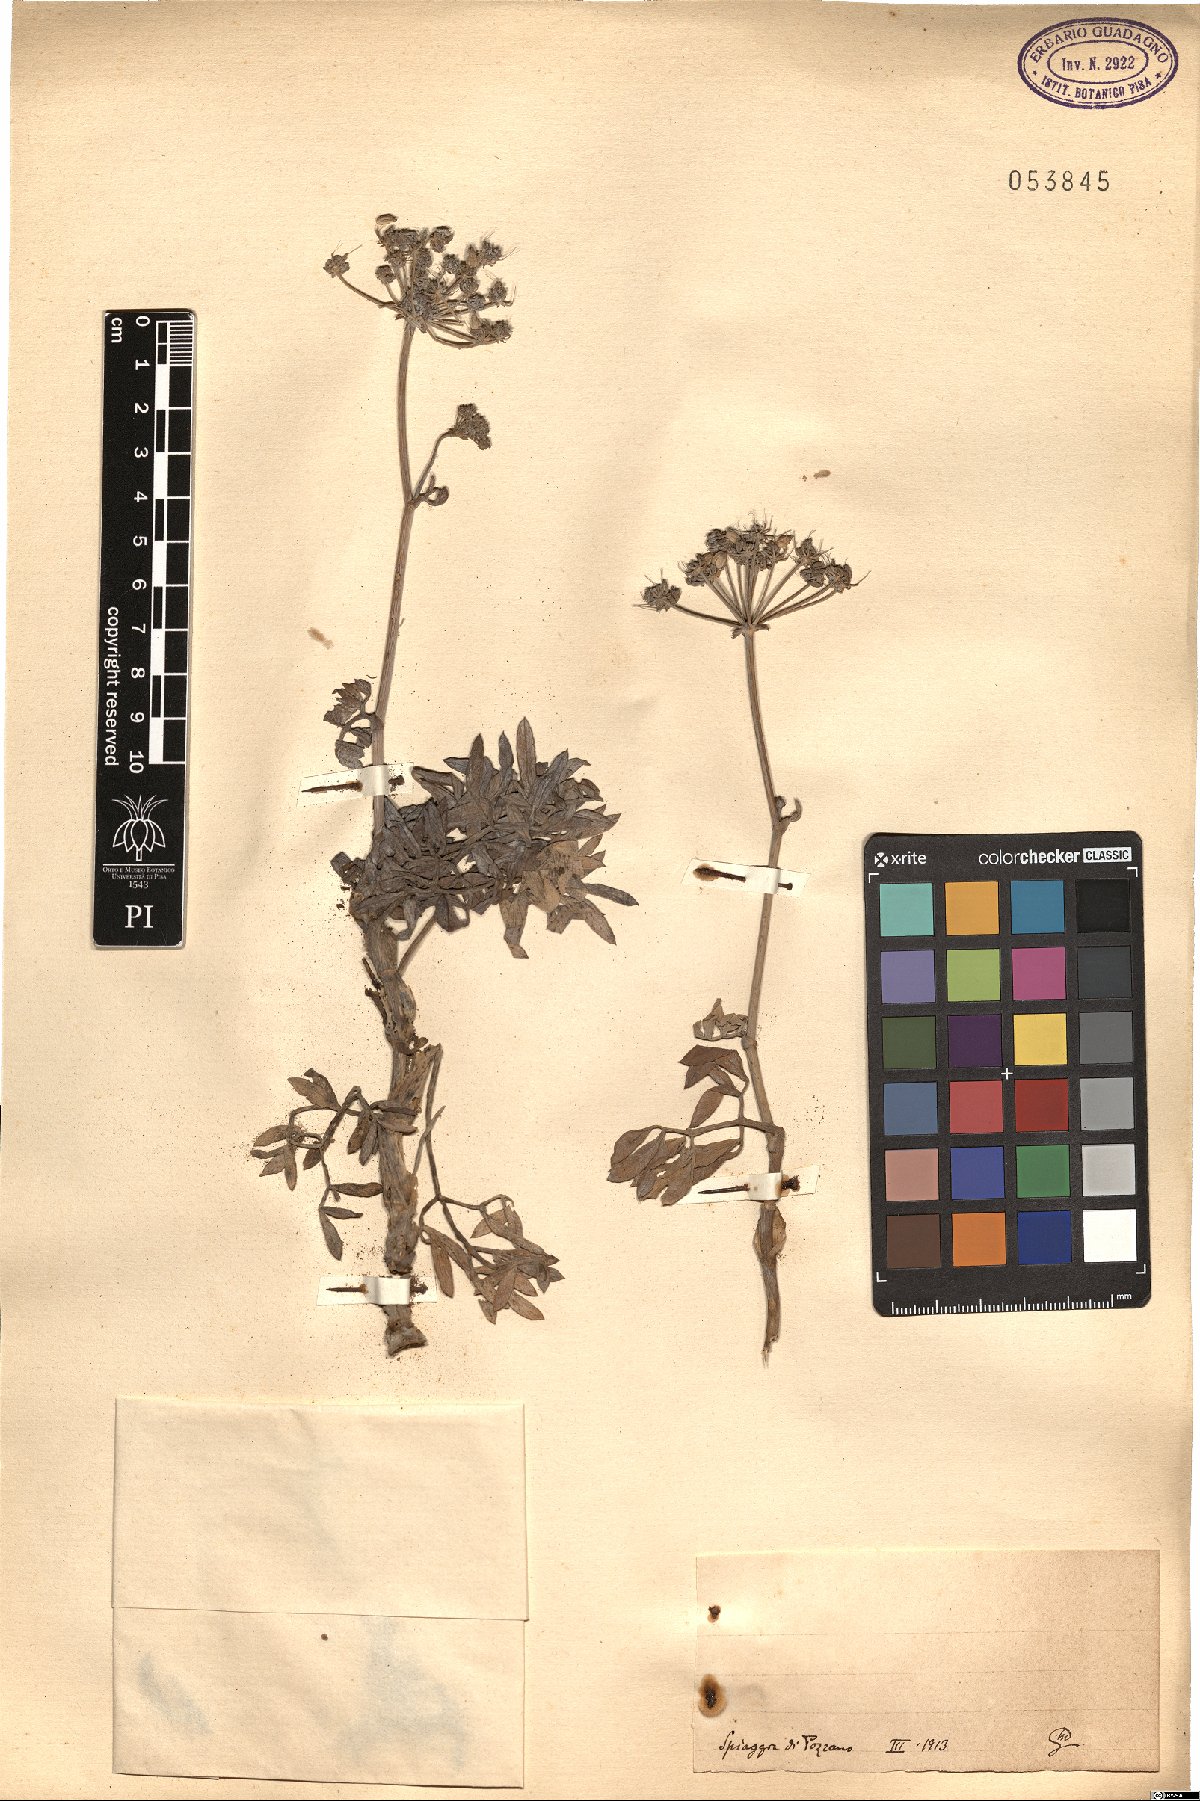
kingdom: Plantae
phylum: Tracheophyta
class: Magnoliopsida
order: Apiales
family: Apiaceae
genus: Crithmum
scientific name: Crithmum
